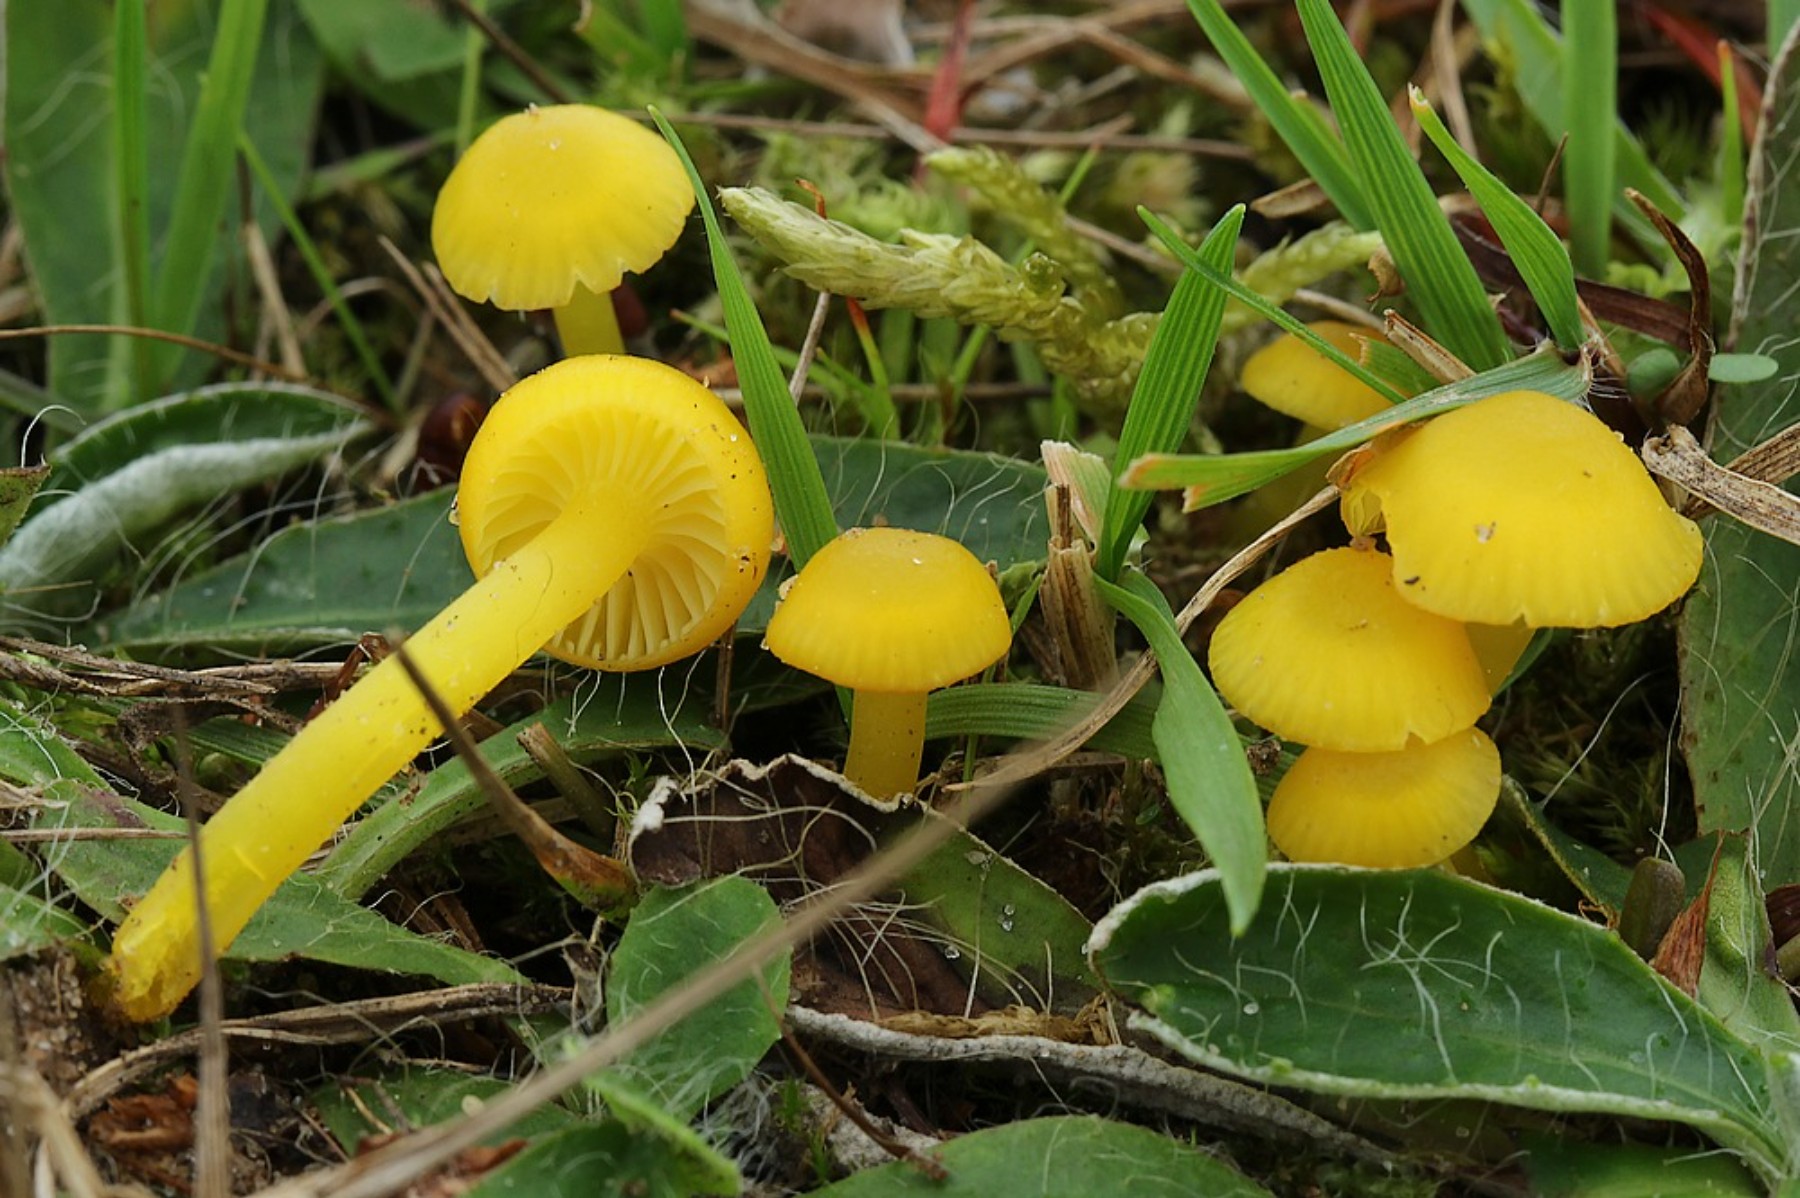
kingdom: Fungi
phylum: Basidiomycota
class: Agaricomycetes
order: Agaricales
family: Hygrophoraceae
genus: Hygrocybe
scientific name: Hygrocybe chlorophana
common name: gul vokshat
